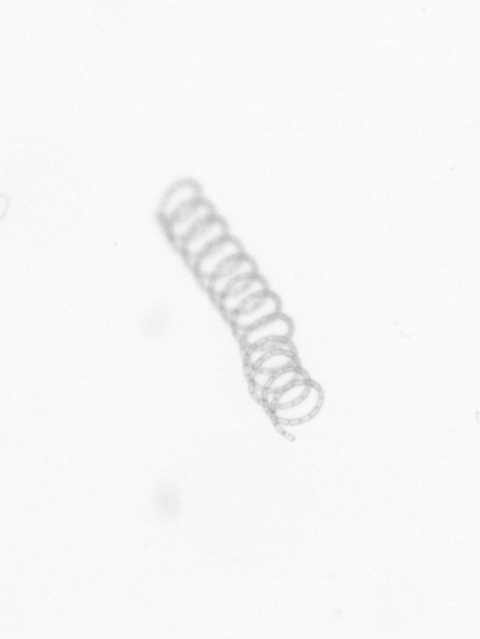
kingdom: Chromista
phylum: Ochrophyta
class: Bacillariophyceae
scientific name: Bacillariophyceae
